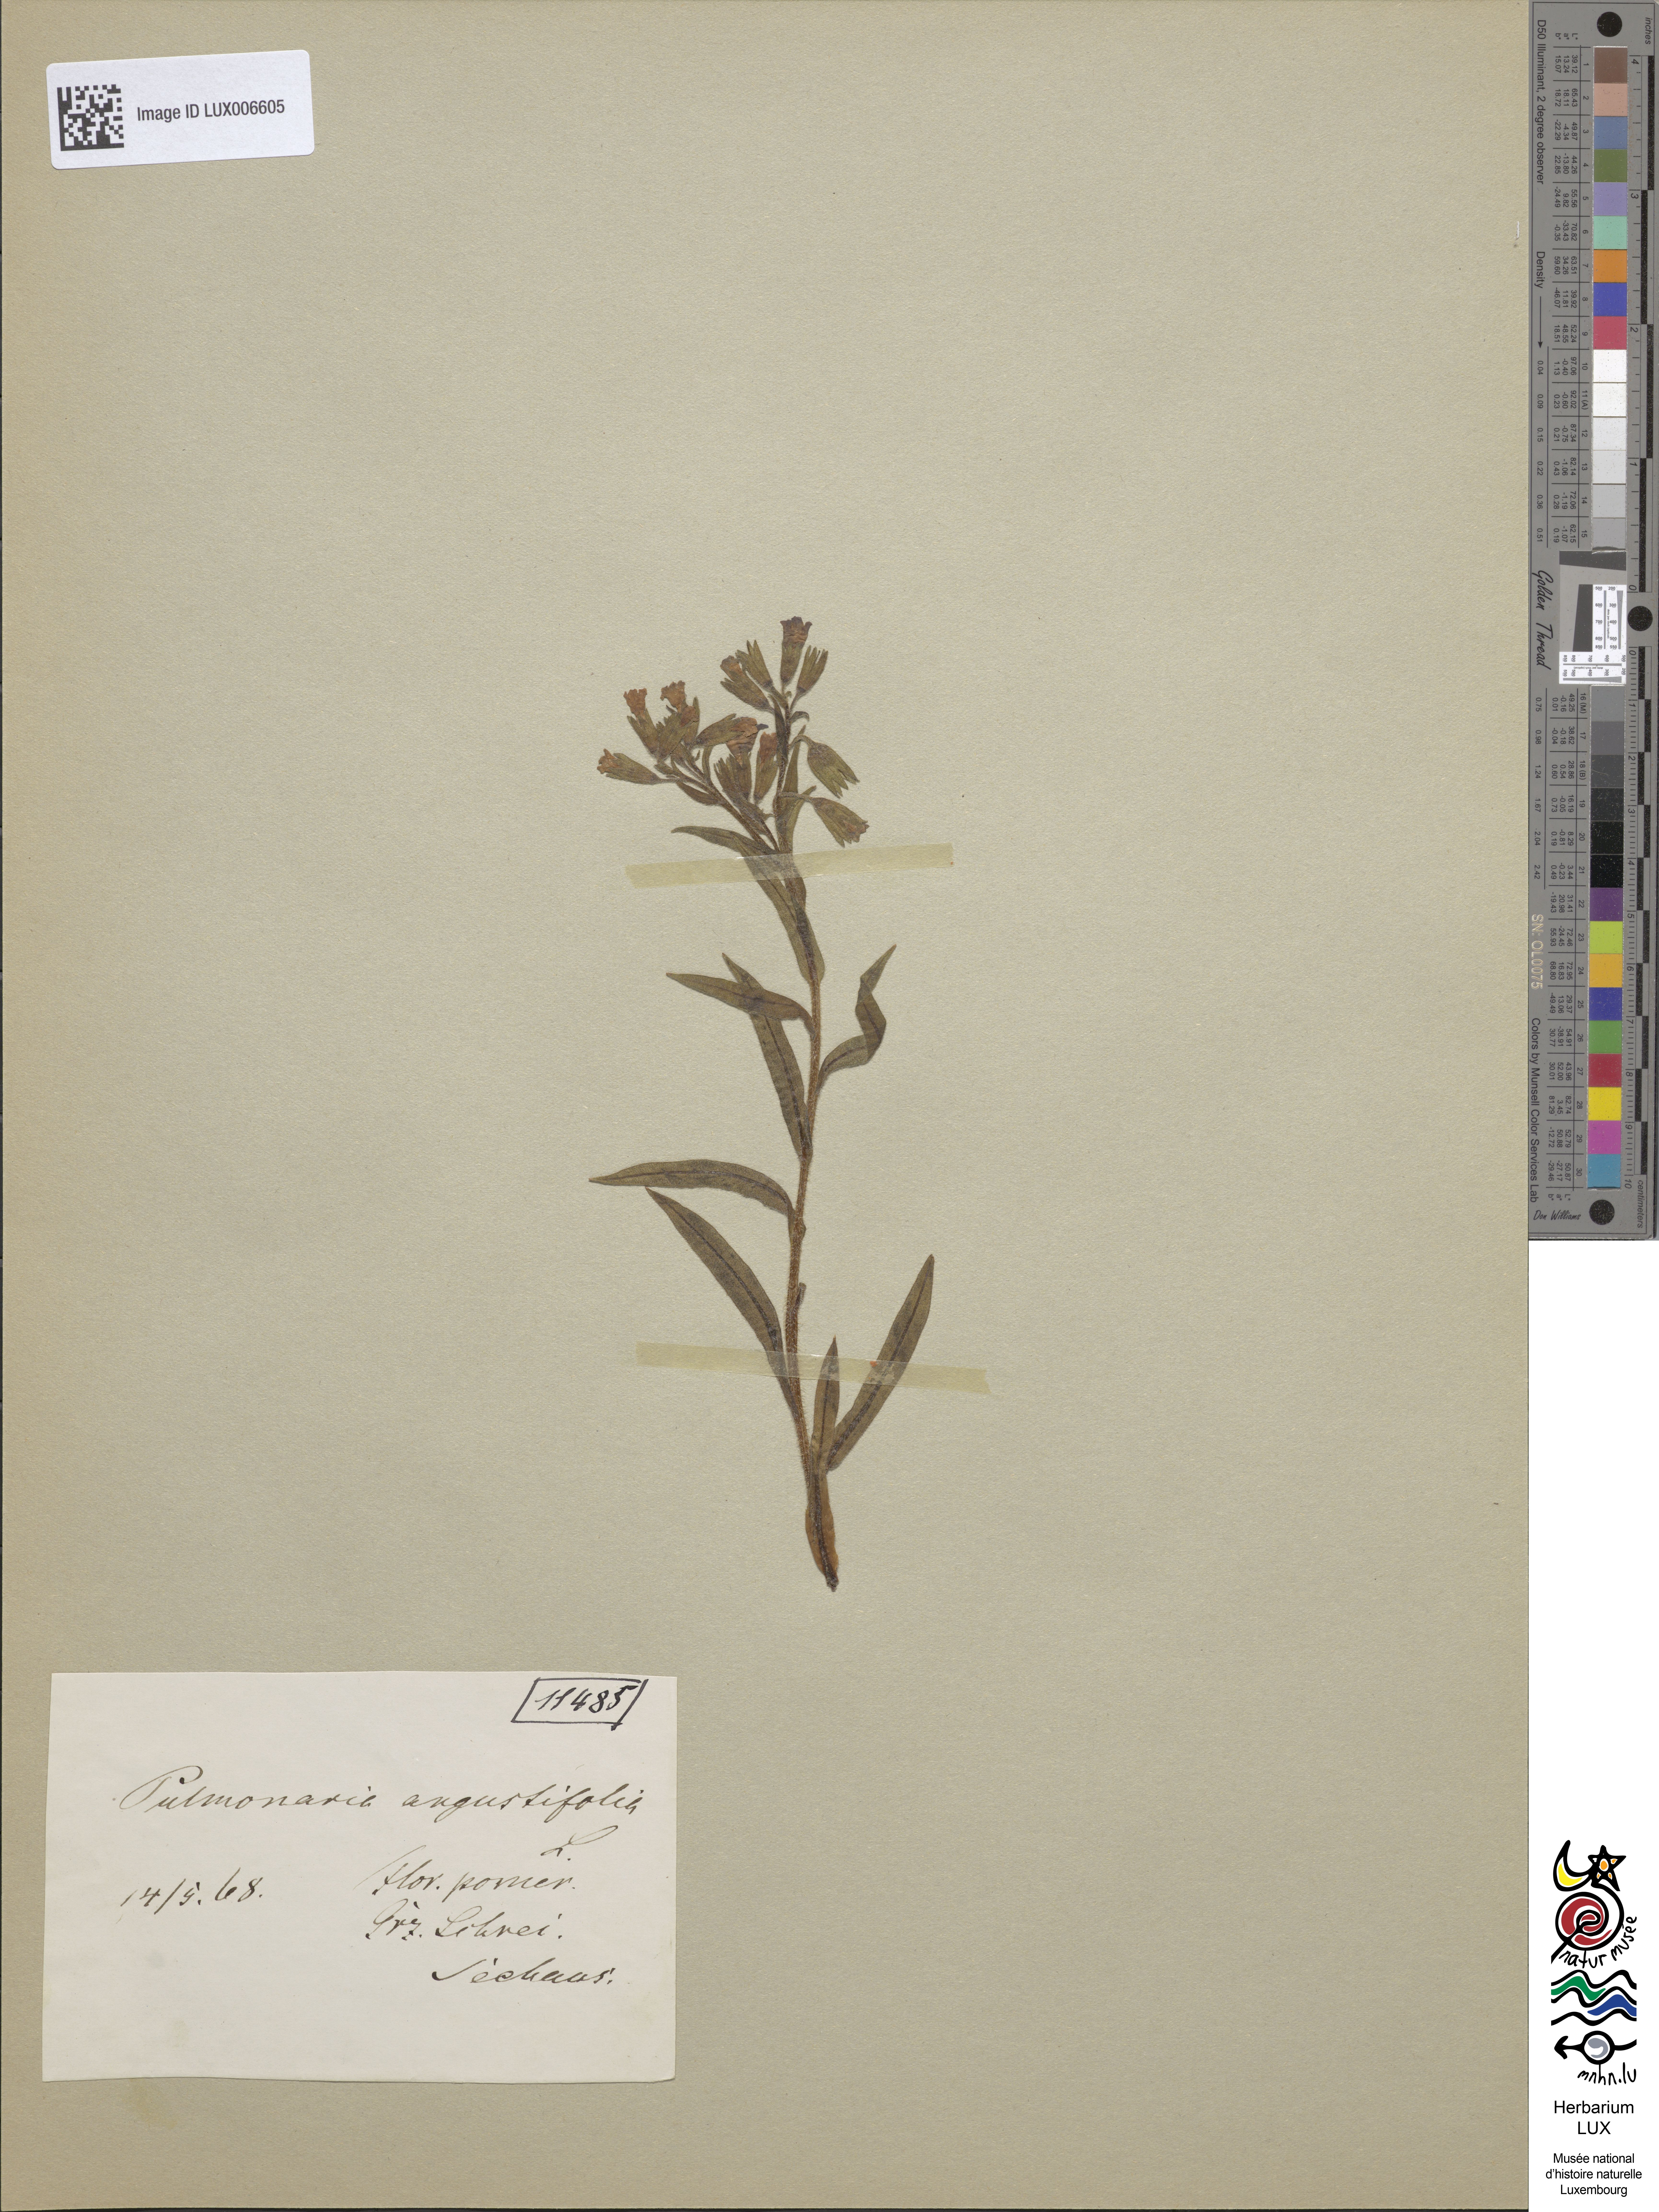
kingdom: Plantae
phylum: Tracheophyta
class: Magnoliopsida
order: Boraginales
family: Boraginaceae
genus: Pulmonaria
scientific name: Pulmonaria angustifolia
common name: Blue cowslip
